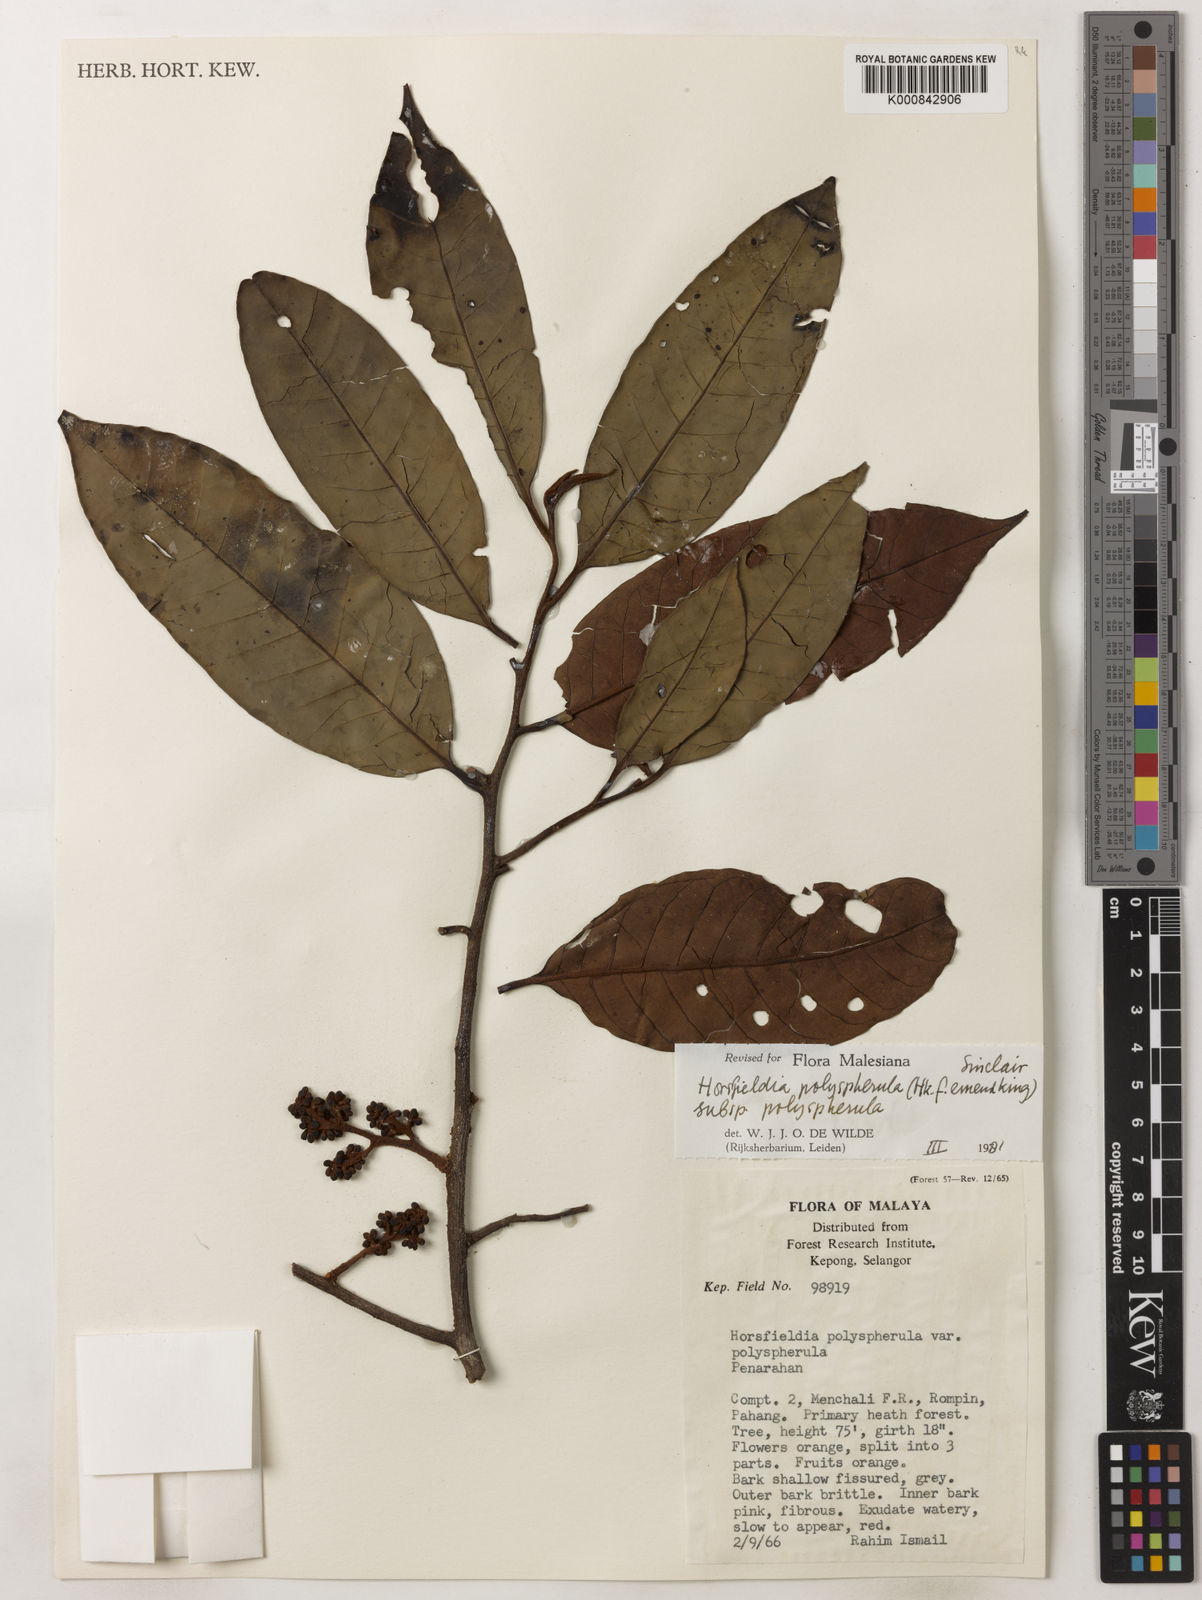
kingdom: Plantae
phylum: Tracheophyta
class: Magnoliopsida
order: Magnoliales
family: Myristicaceae
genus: Horsfieldia
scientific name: Horsfieldia
